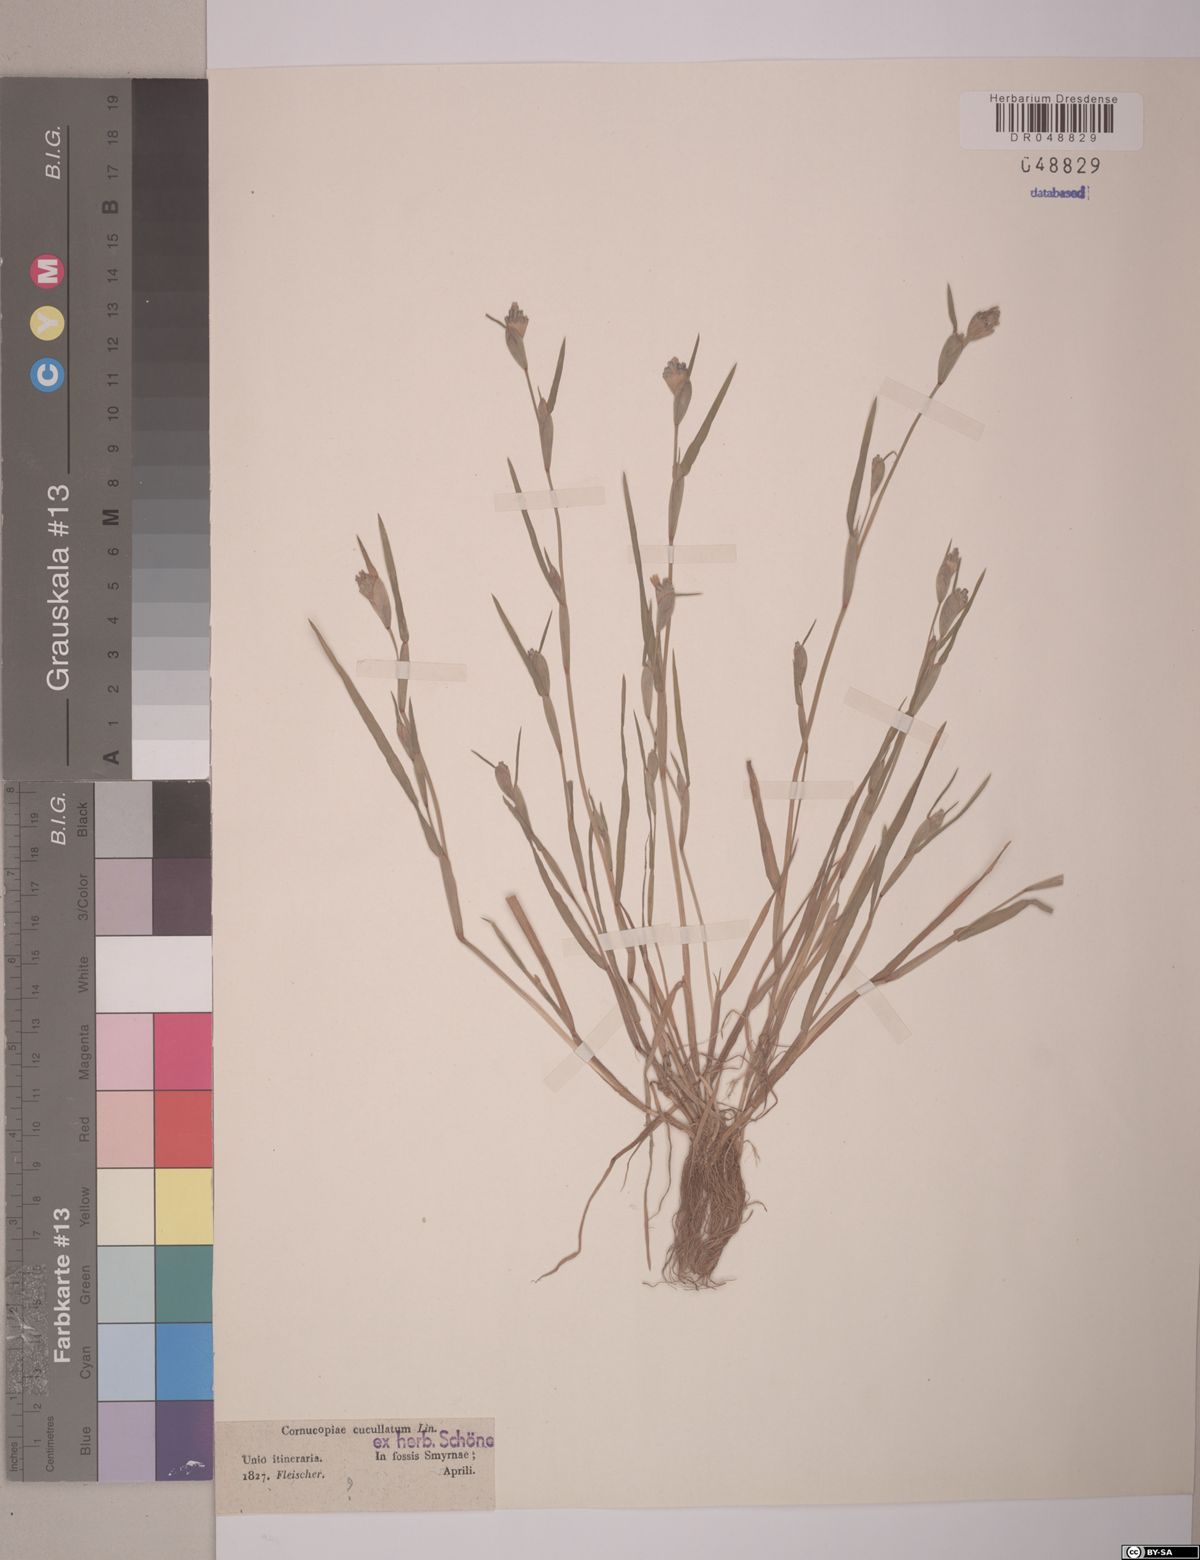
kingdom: Plantae
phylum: Tracheophyta
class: Liliopsida
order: Poales
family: Poaceae
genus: Cornucopiae
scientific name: Cornucopiae cucullatum
